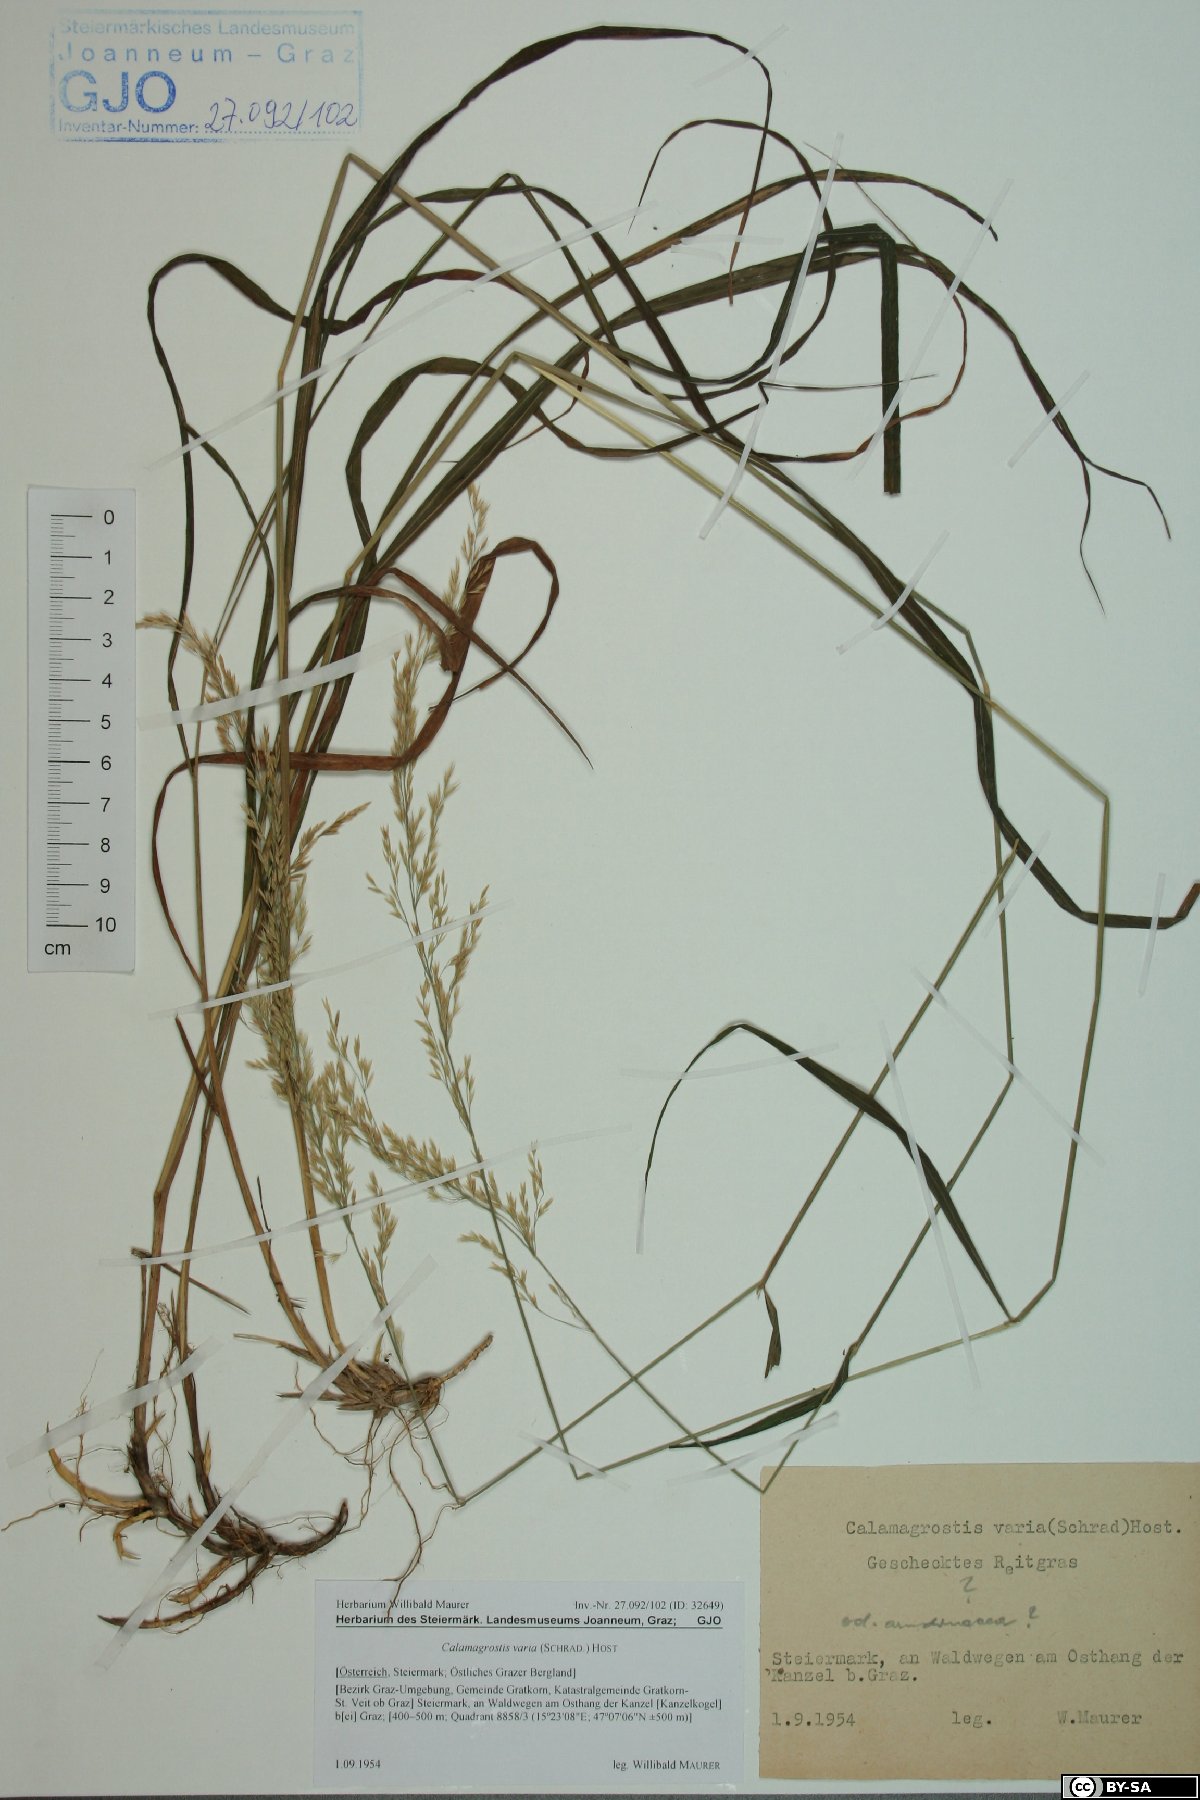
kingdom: Plantae
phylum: Tracheophyta
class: Liliopsida
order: Poales
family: Poaceae
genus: Calamagrostis
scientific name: Calamagrostis varia
